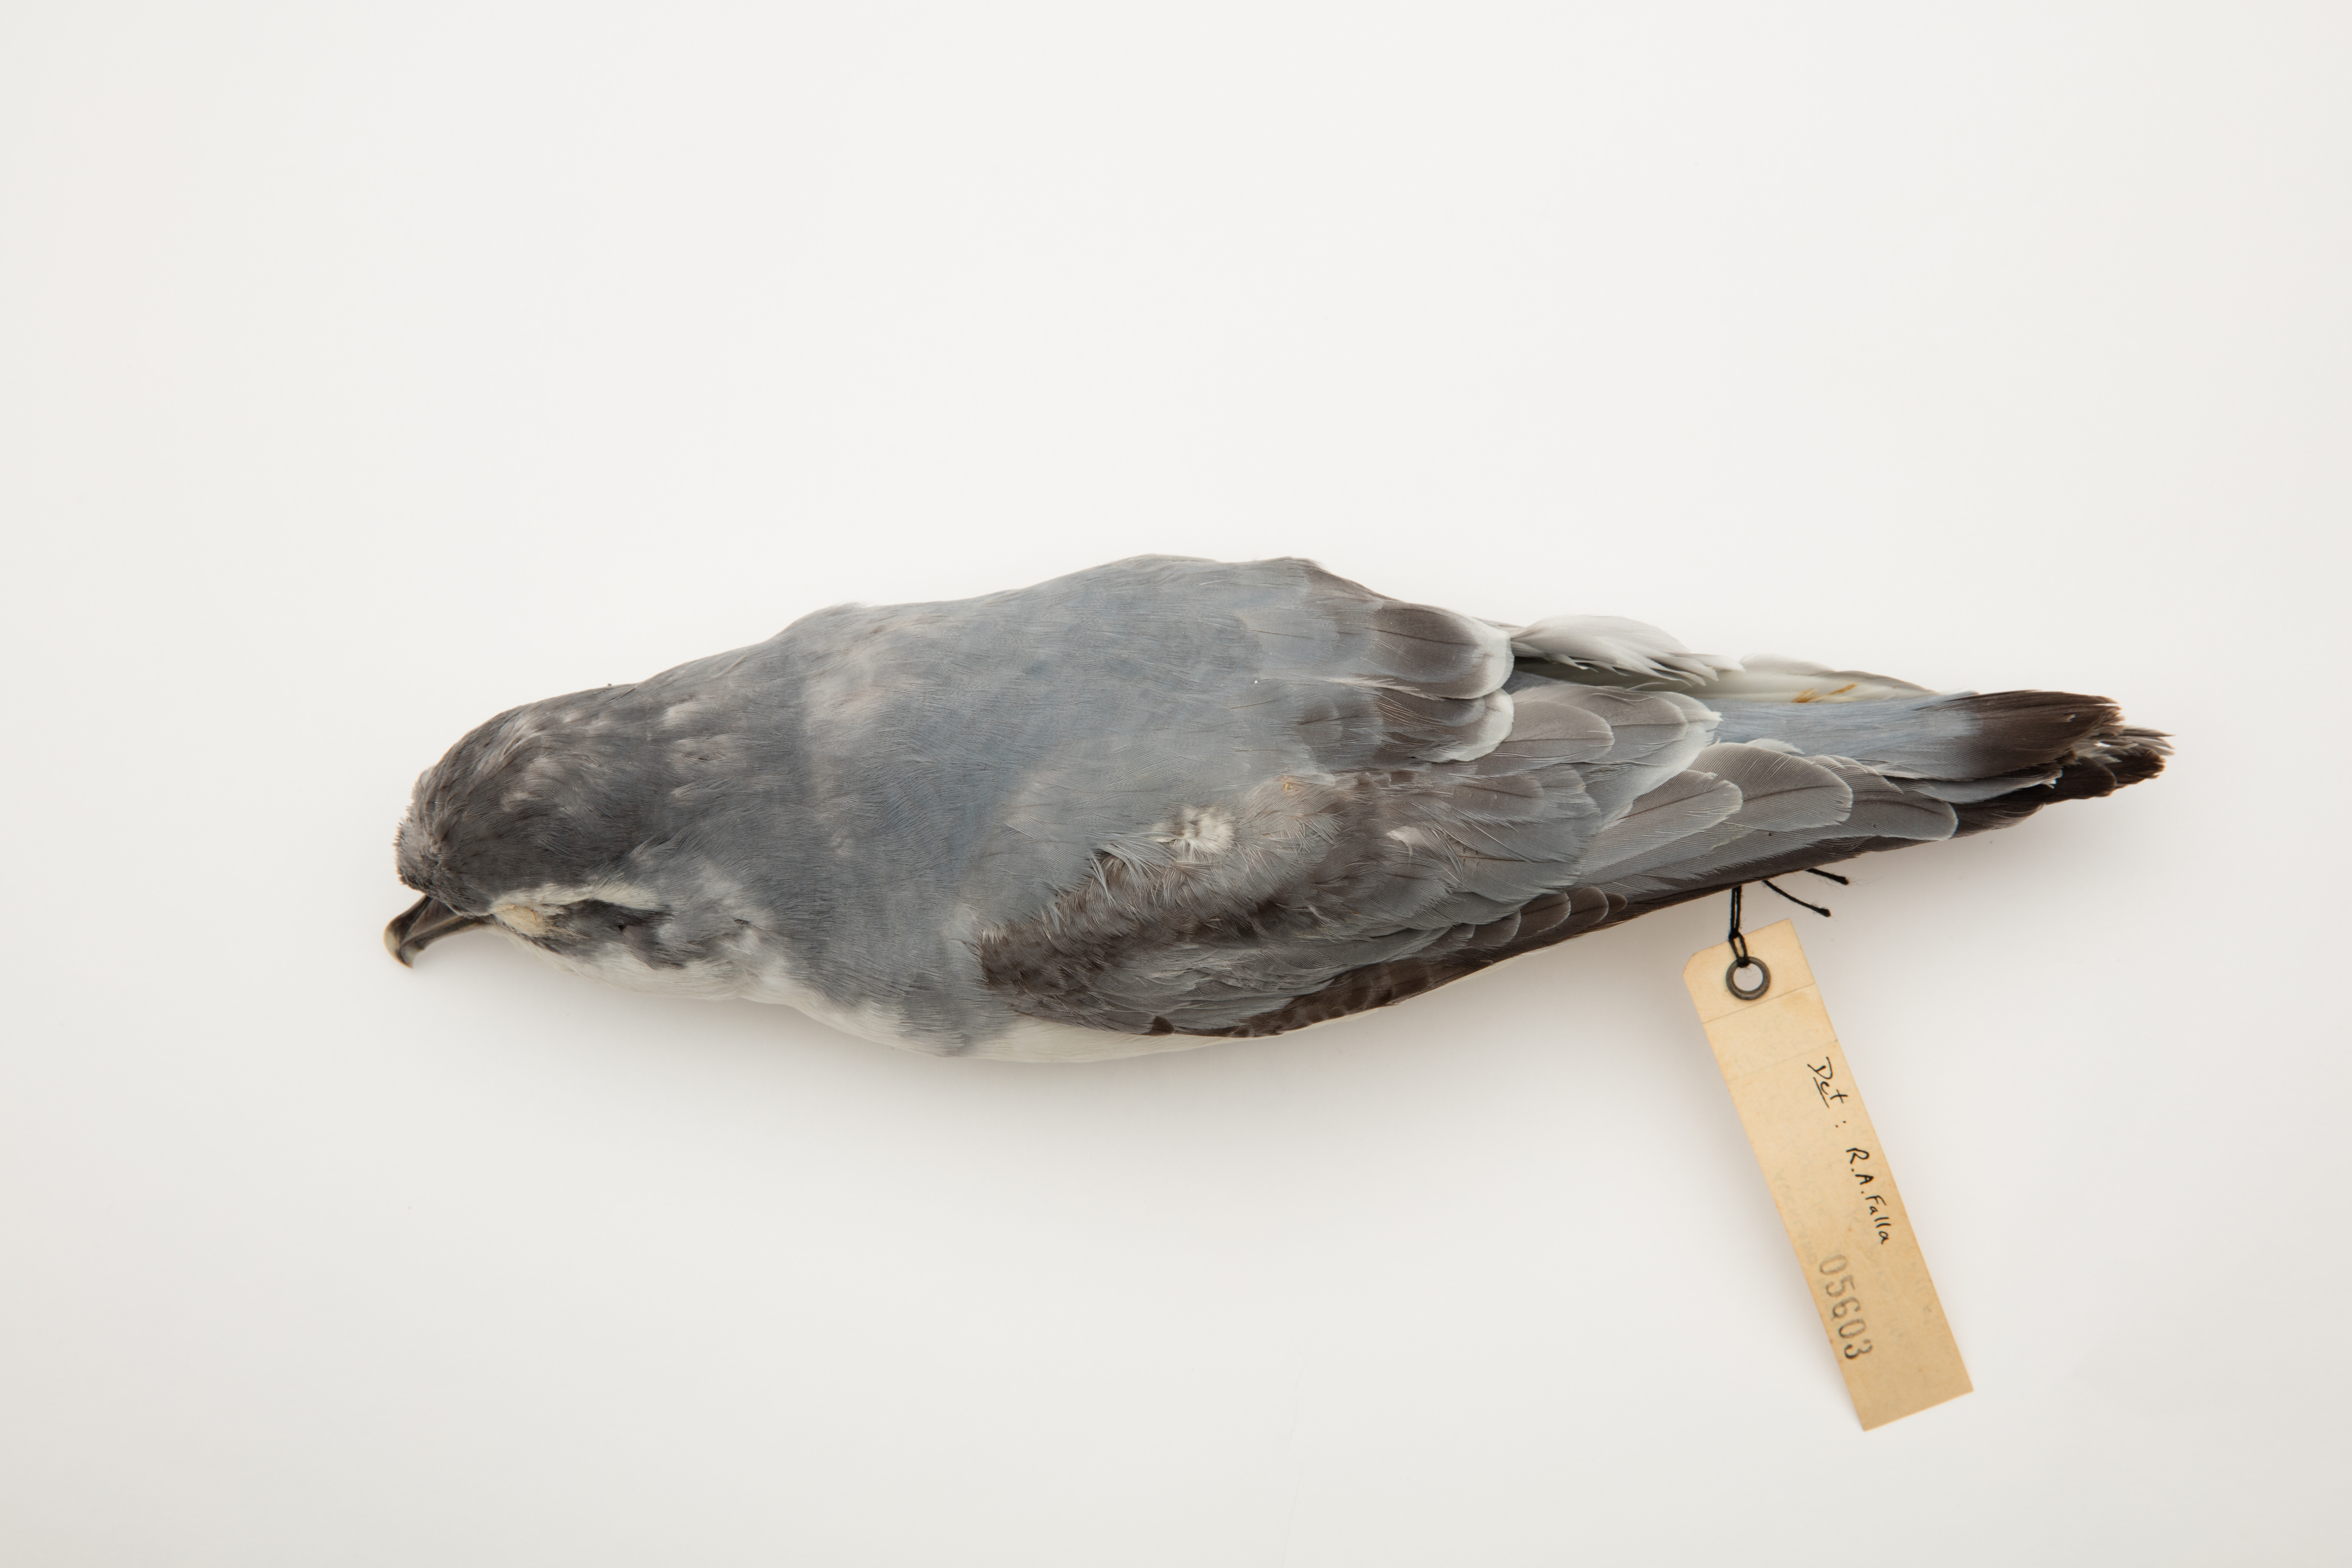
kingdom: Animalia
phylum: Chordata
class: Aves
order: Procellariiformes
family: Procellariidae
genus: Pachyptila
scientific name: Pachyptila belcheri
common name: Slender-billed prion
